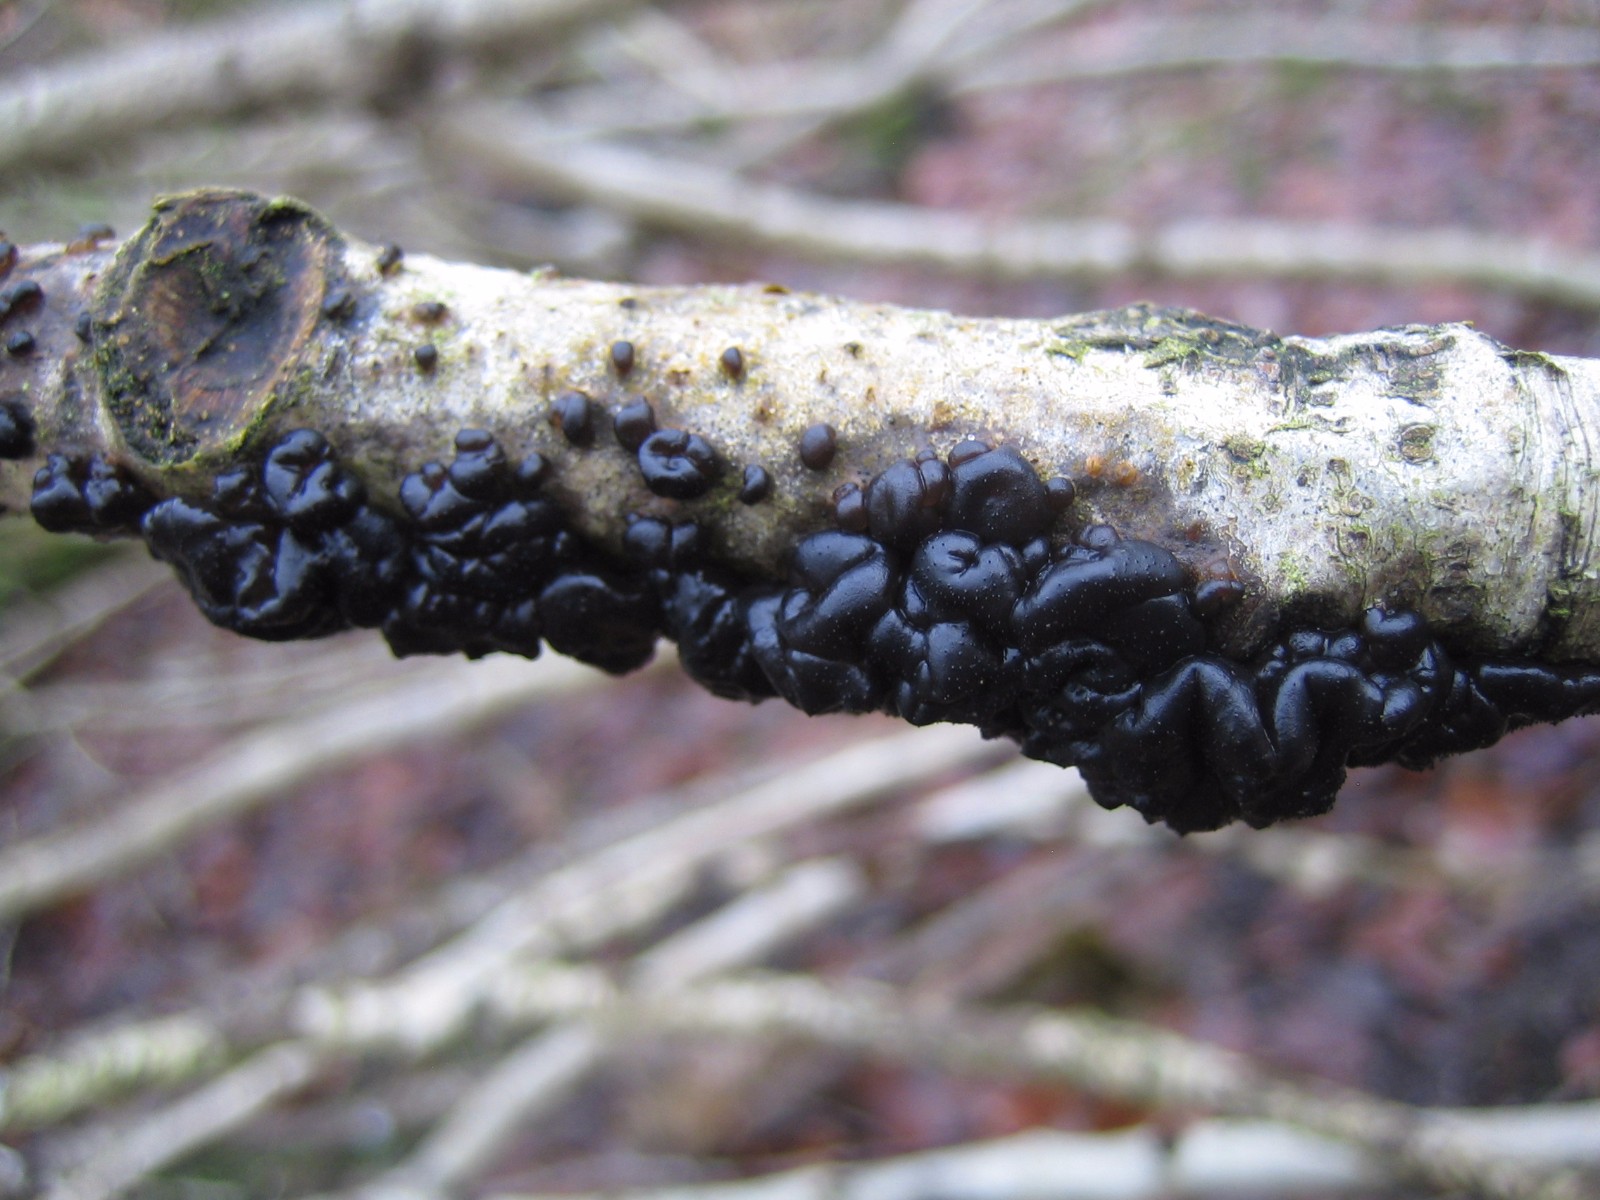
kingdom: Fungi
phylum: Basidiomycota
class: Agaricomycetes
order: Auriculariales
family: Auriculariaceae
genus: Exidia
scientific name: Exidia nigricans
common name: almindelig bævretop
